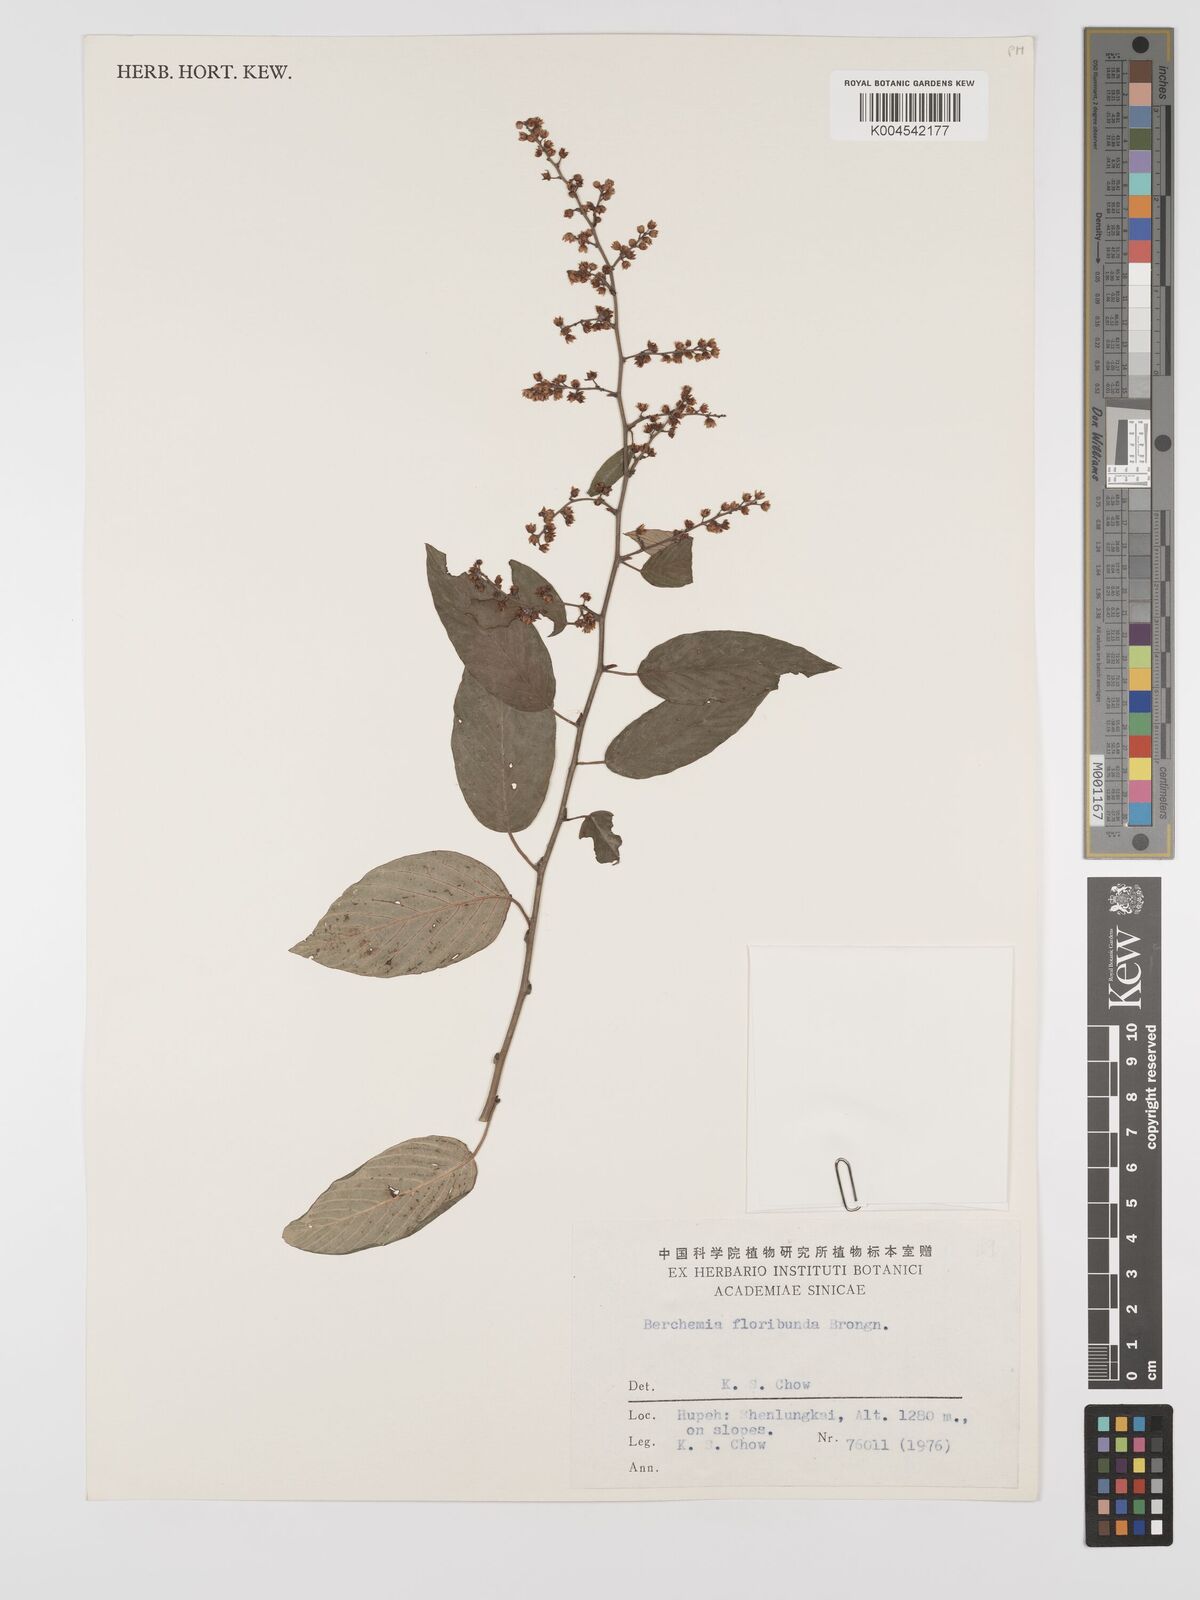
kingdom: Plantae
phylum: Tracheophyta
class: Magnoliopsida
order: Rosales
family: Rhamnaceae
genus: Berchemia
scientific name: Berchemia floribunda
